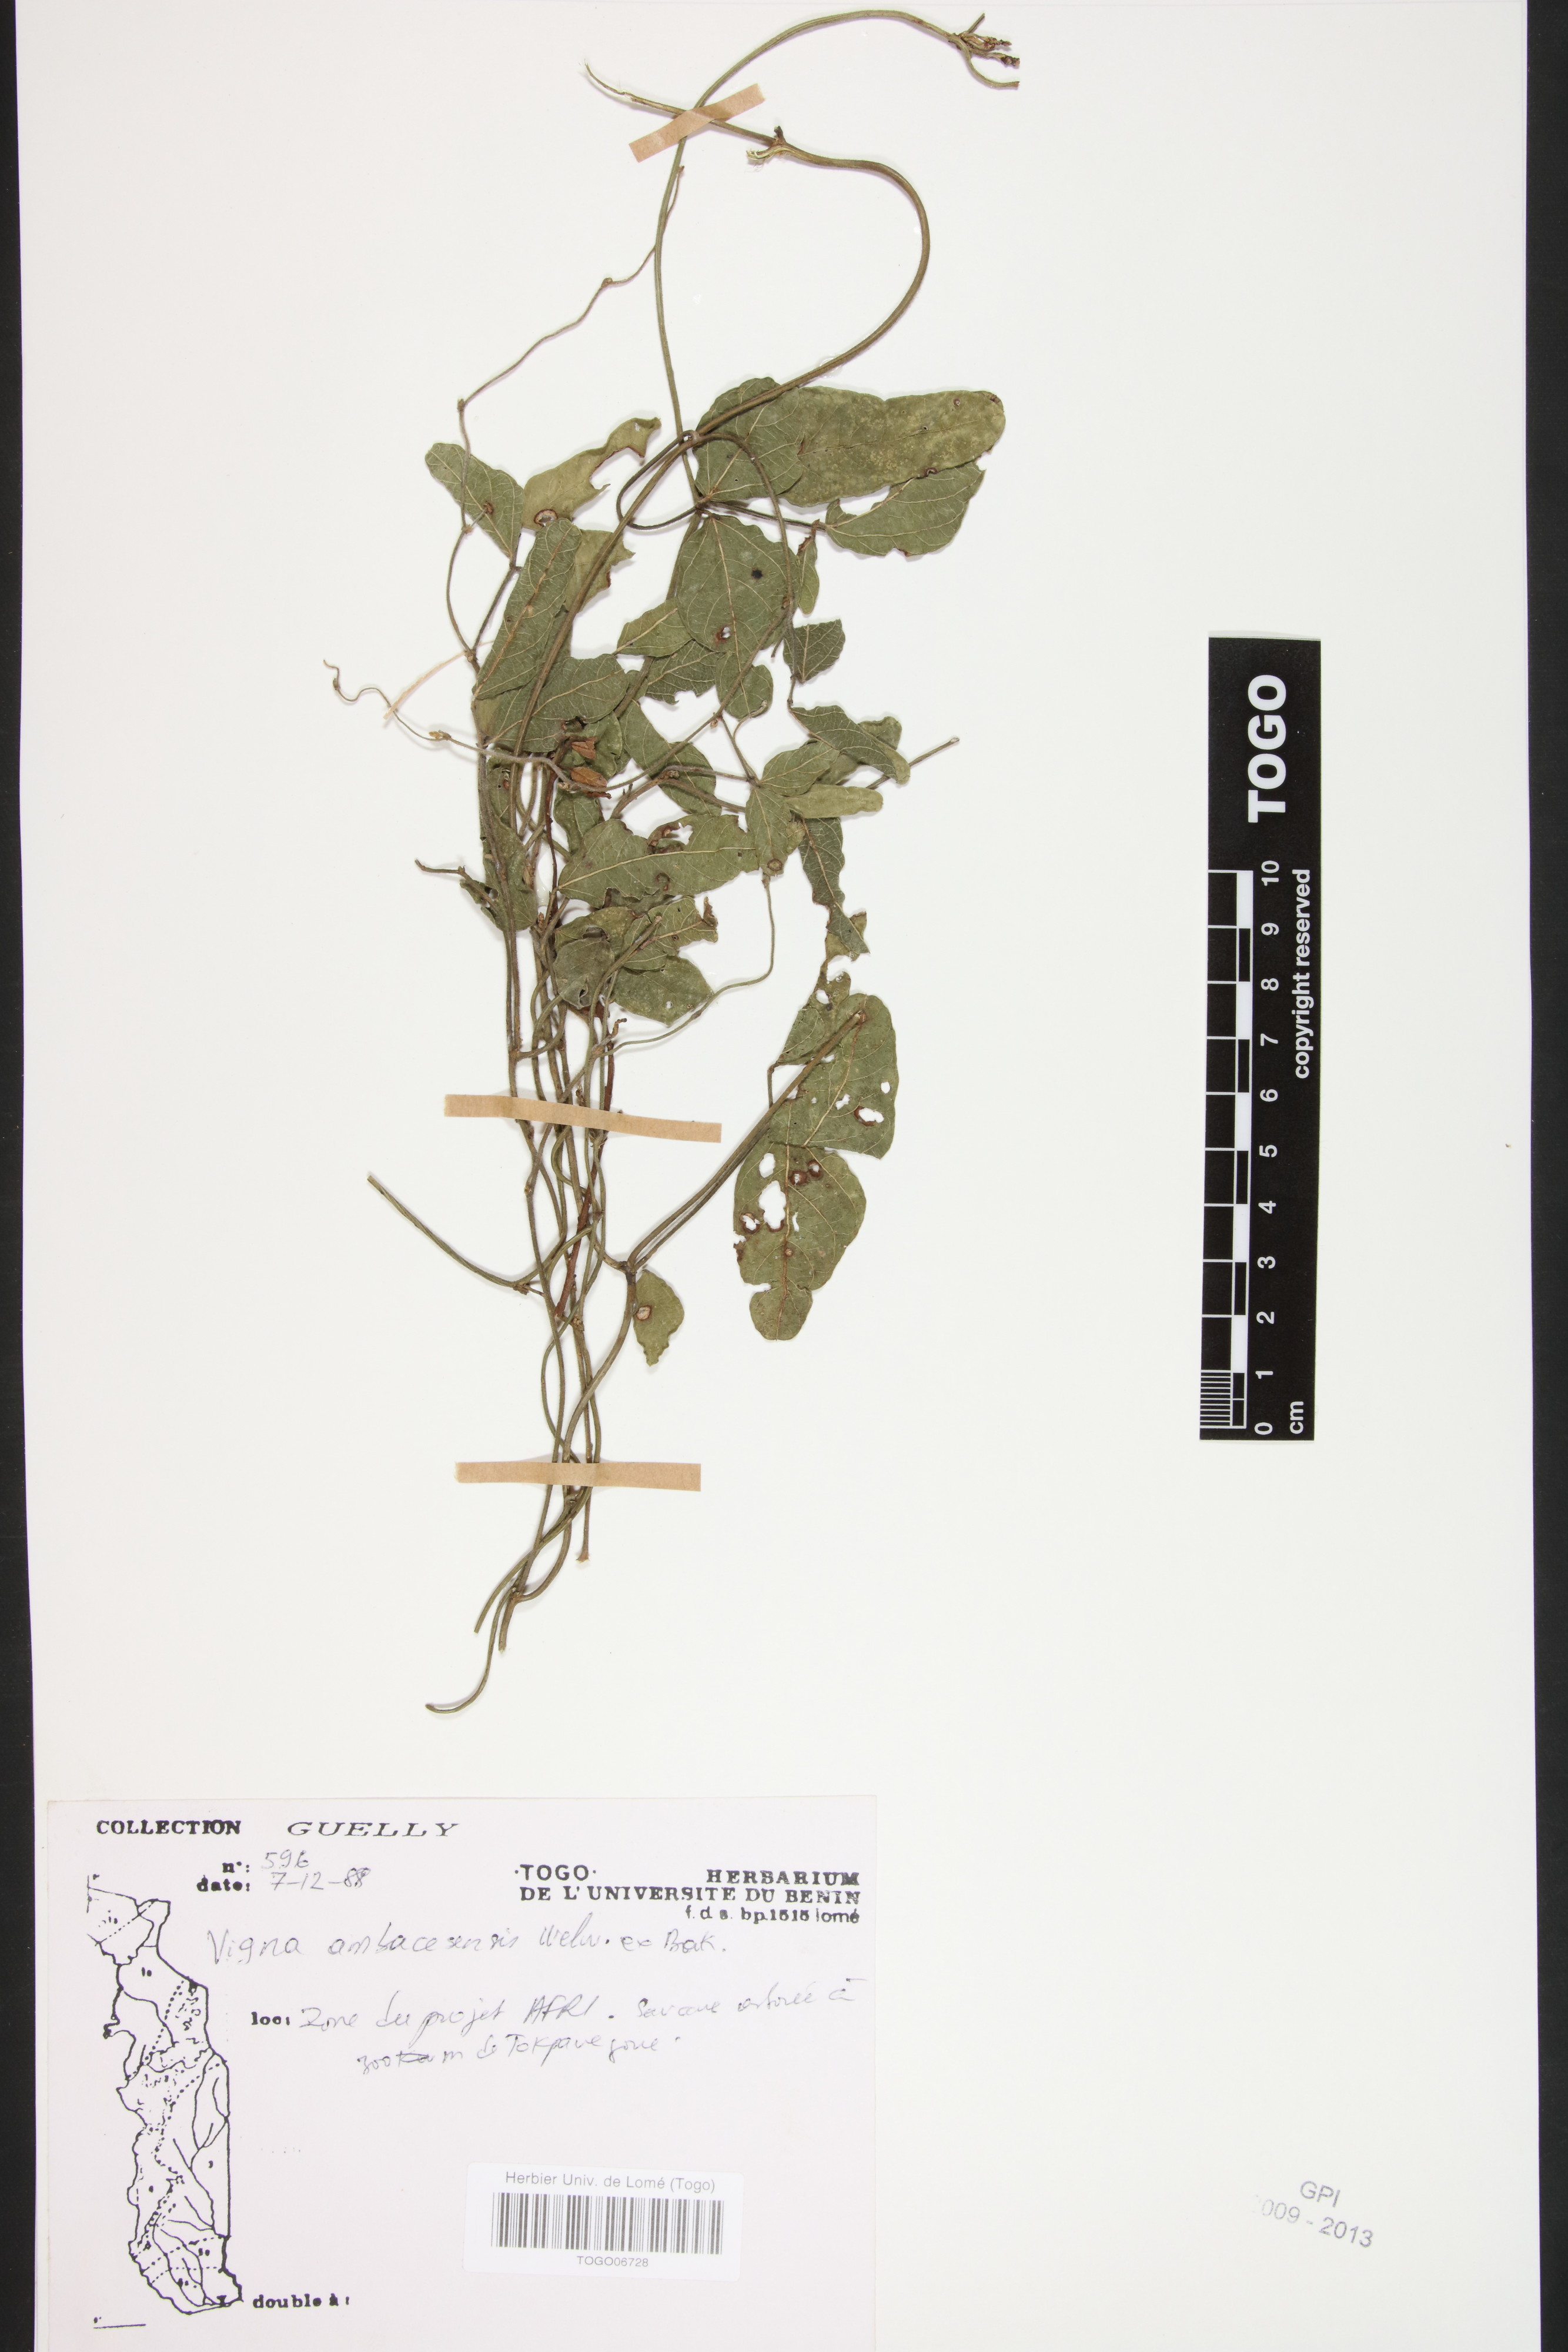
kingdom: Plantae
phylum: Tracheophyta
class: Magnoliopsida
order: Fabales
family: Fabaceae
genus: Vigna
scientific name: Vigna ambacensis
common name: Tsarkiyan zomo
